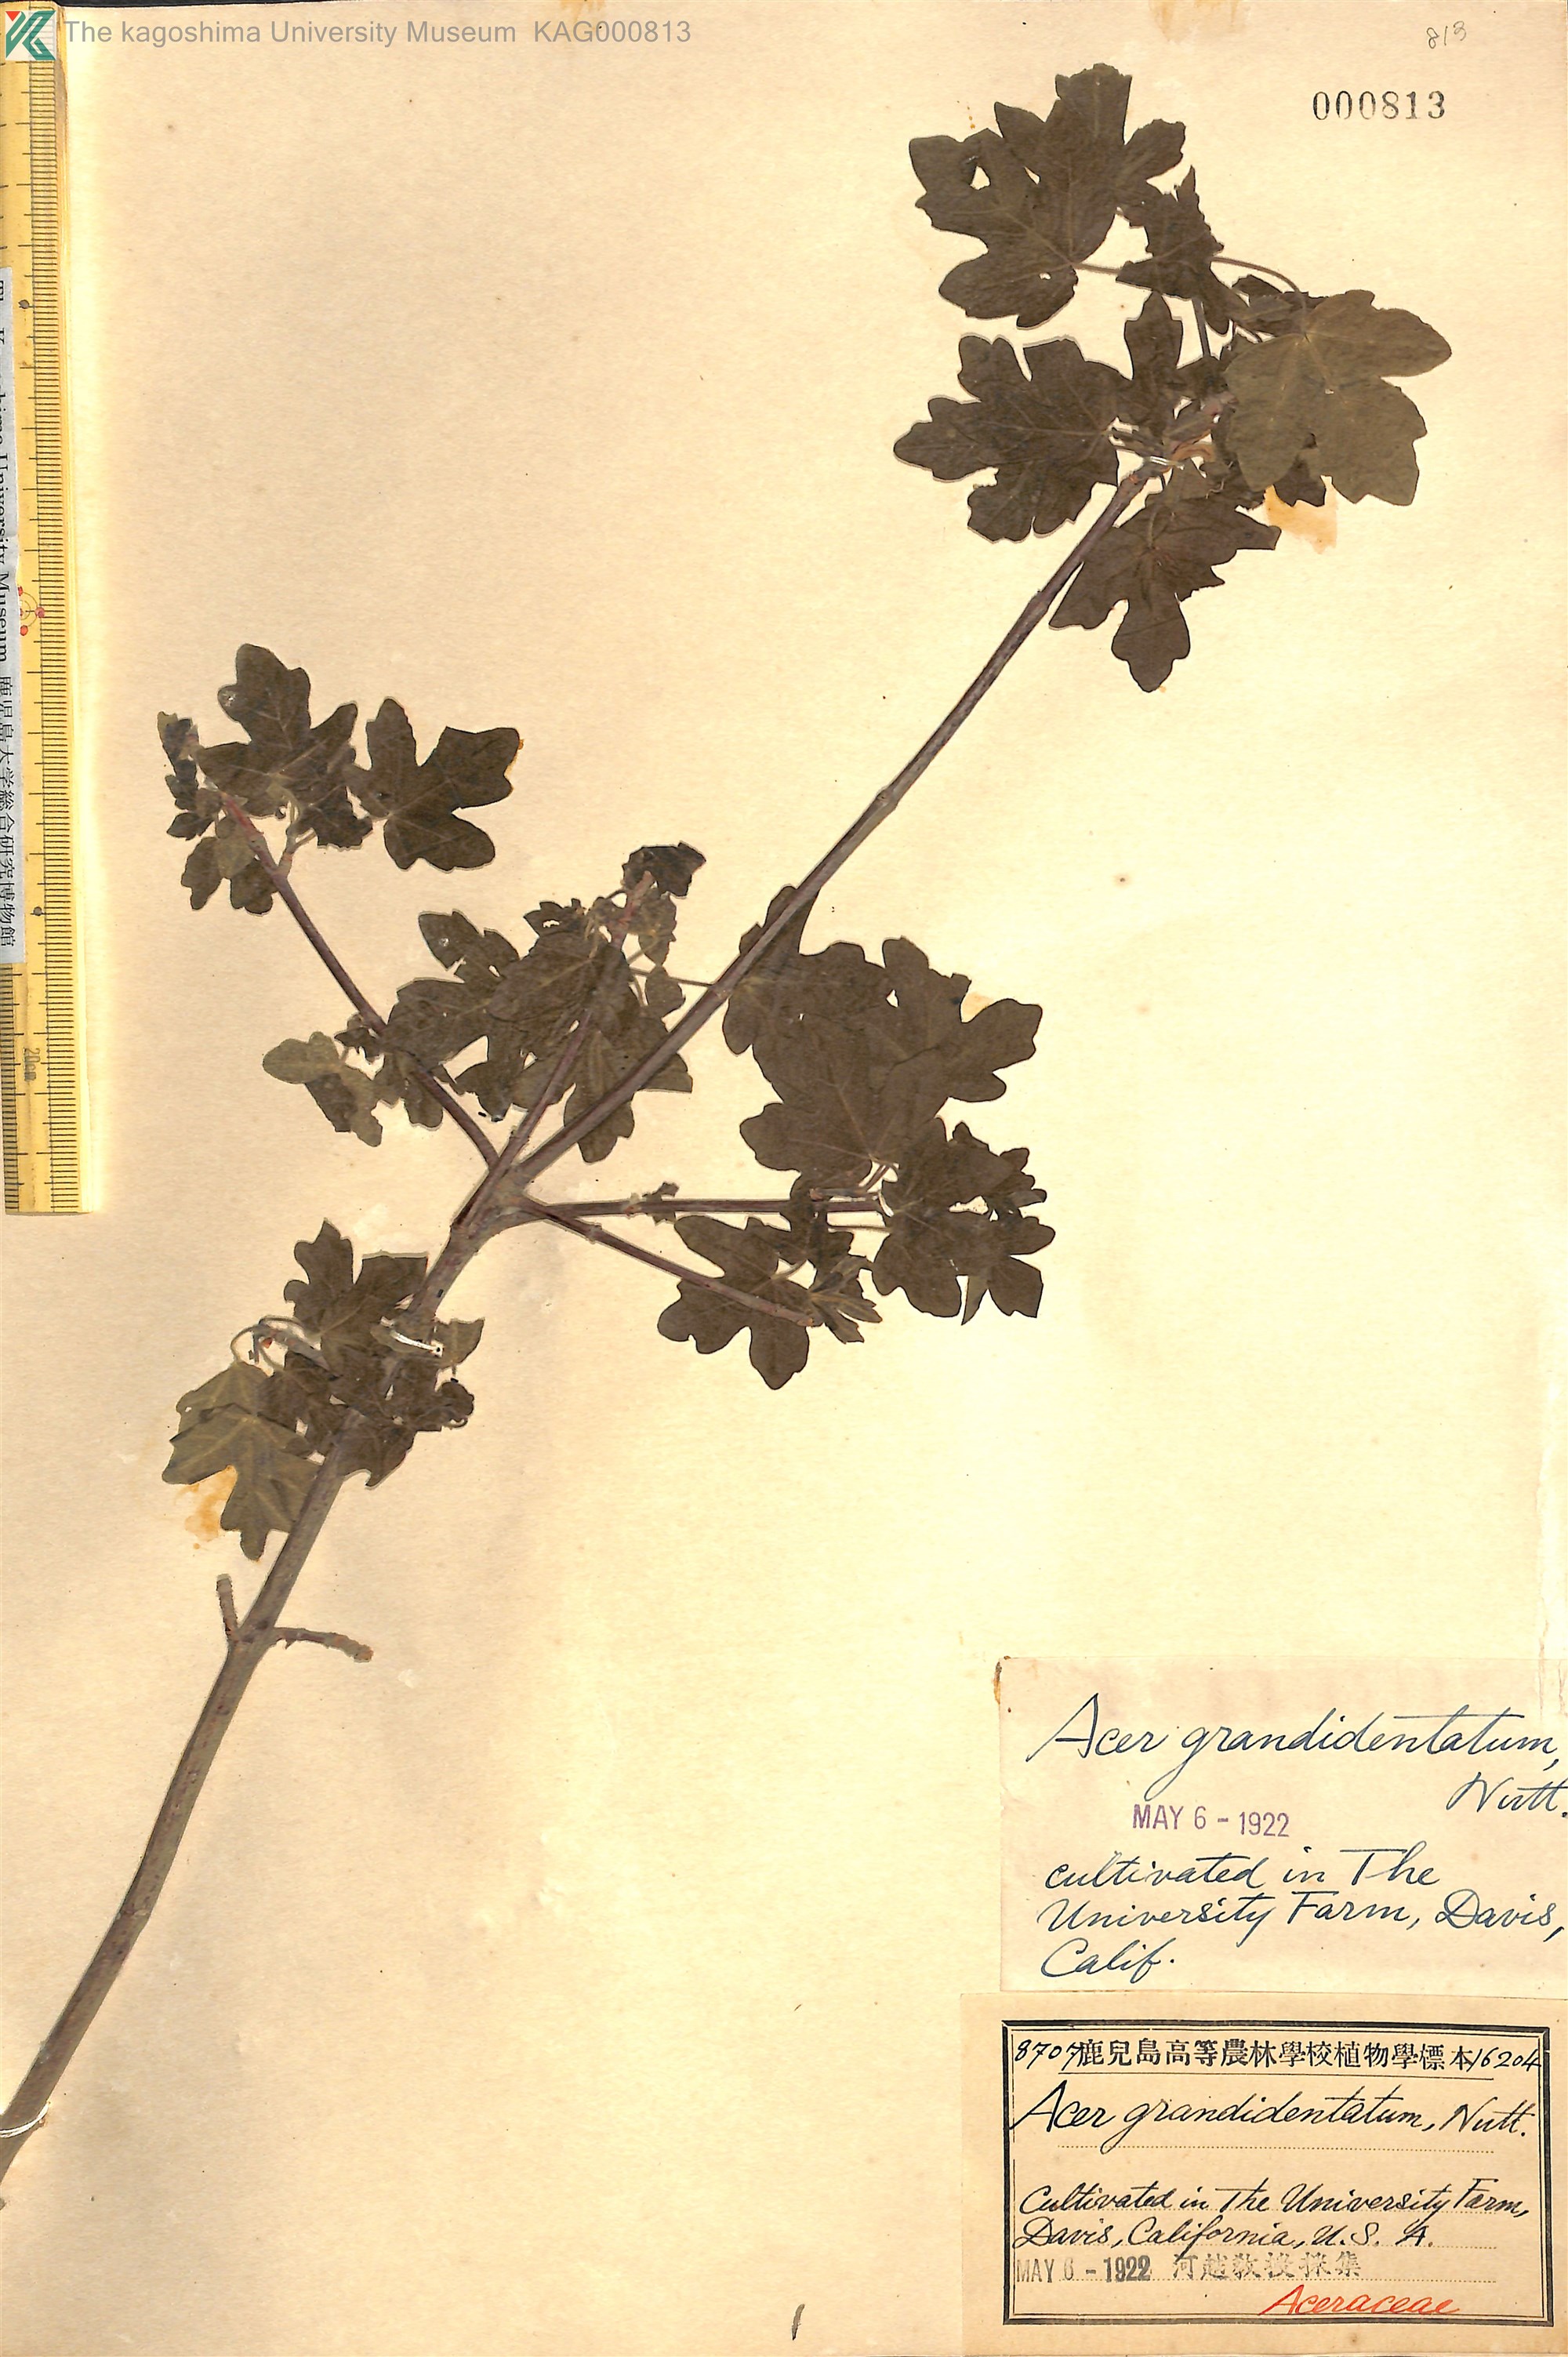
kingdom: Plantae
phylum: Tracheophyta
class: Magnoliopsida
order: Sapindales
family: Sapindaceae
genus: Acer
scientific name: Acer grandidentatum
